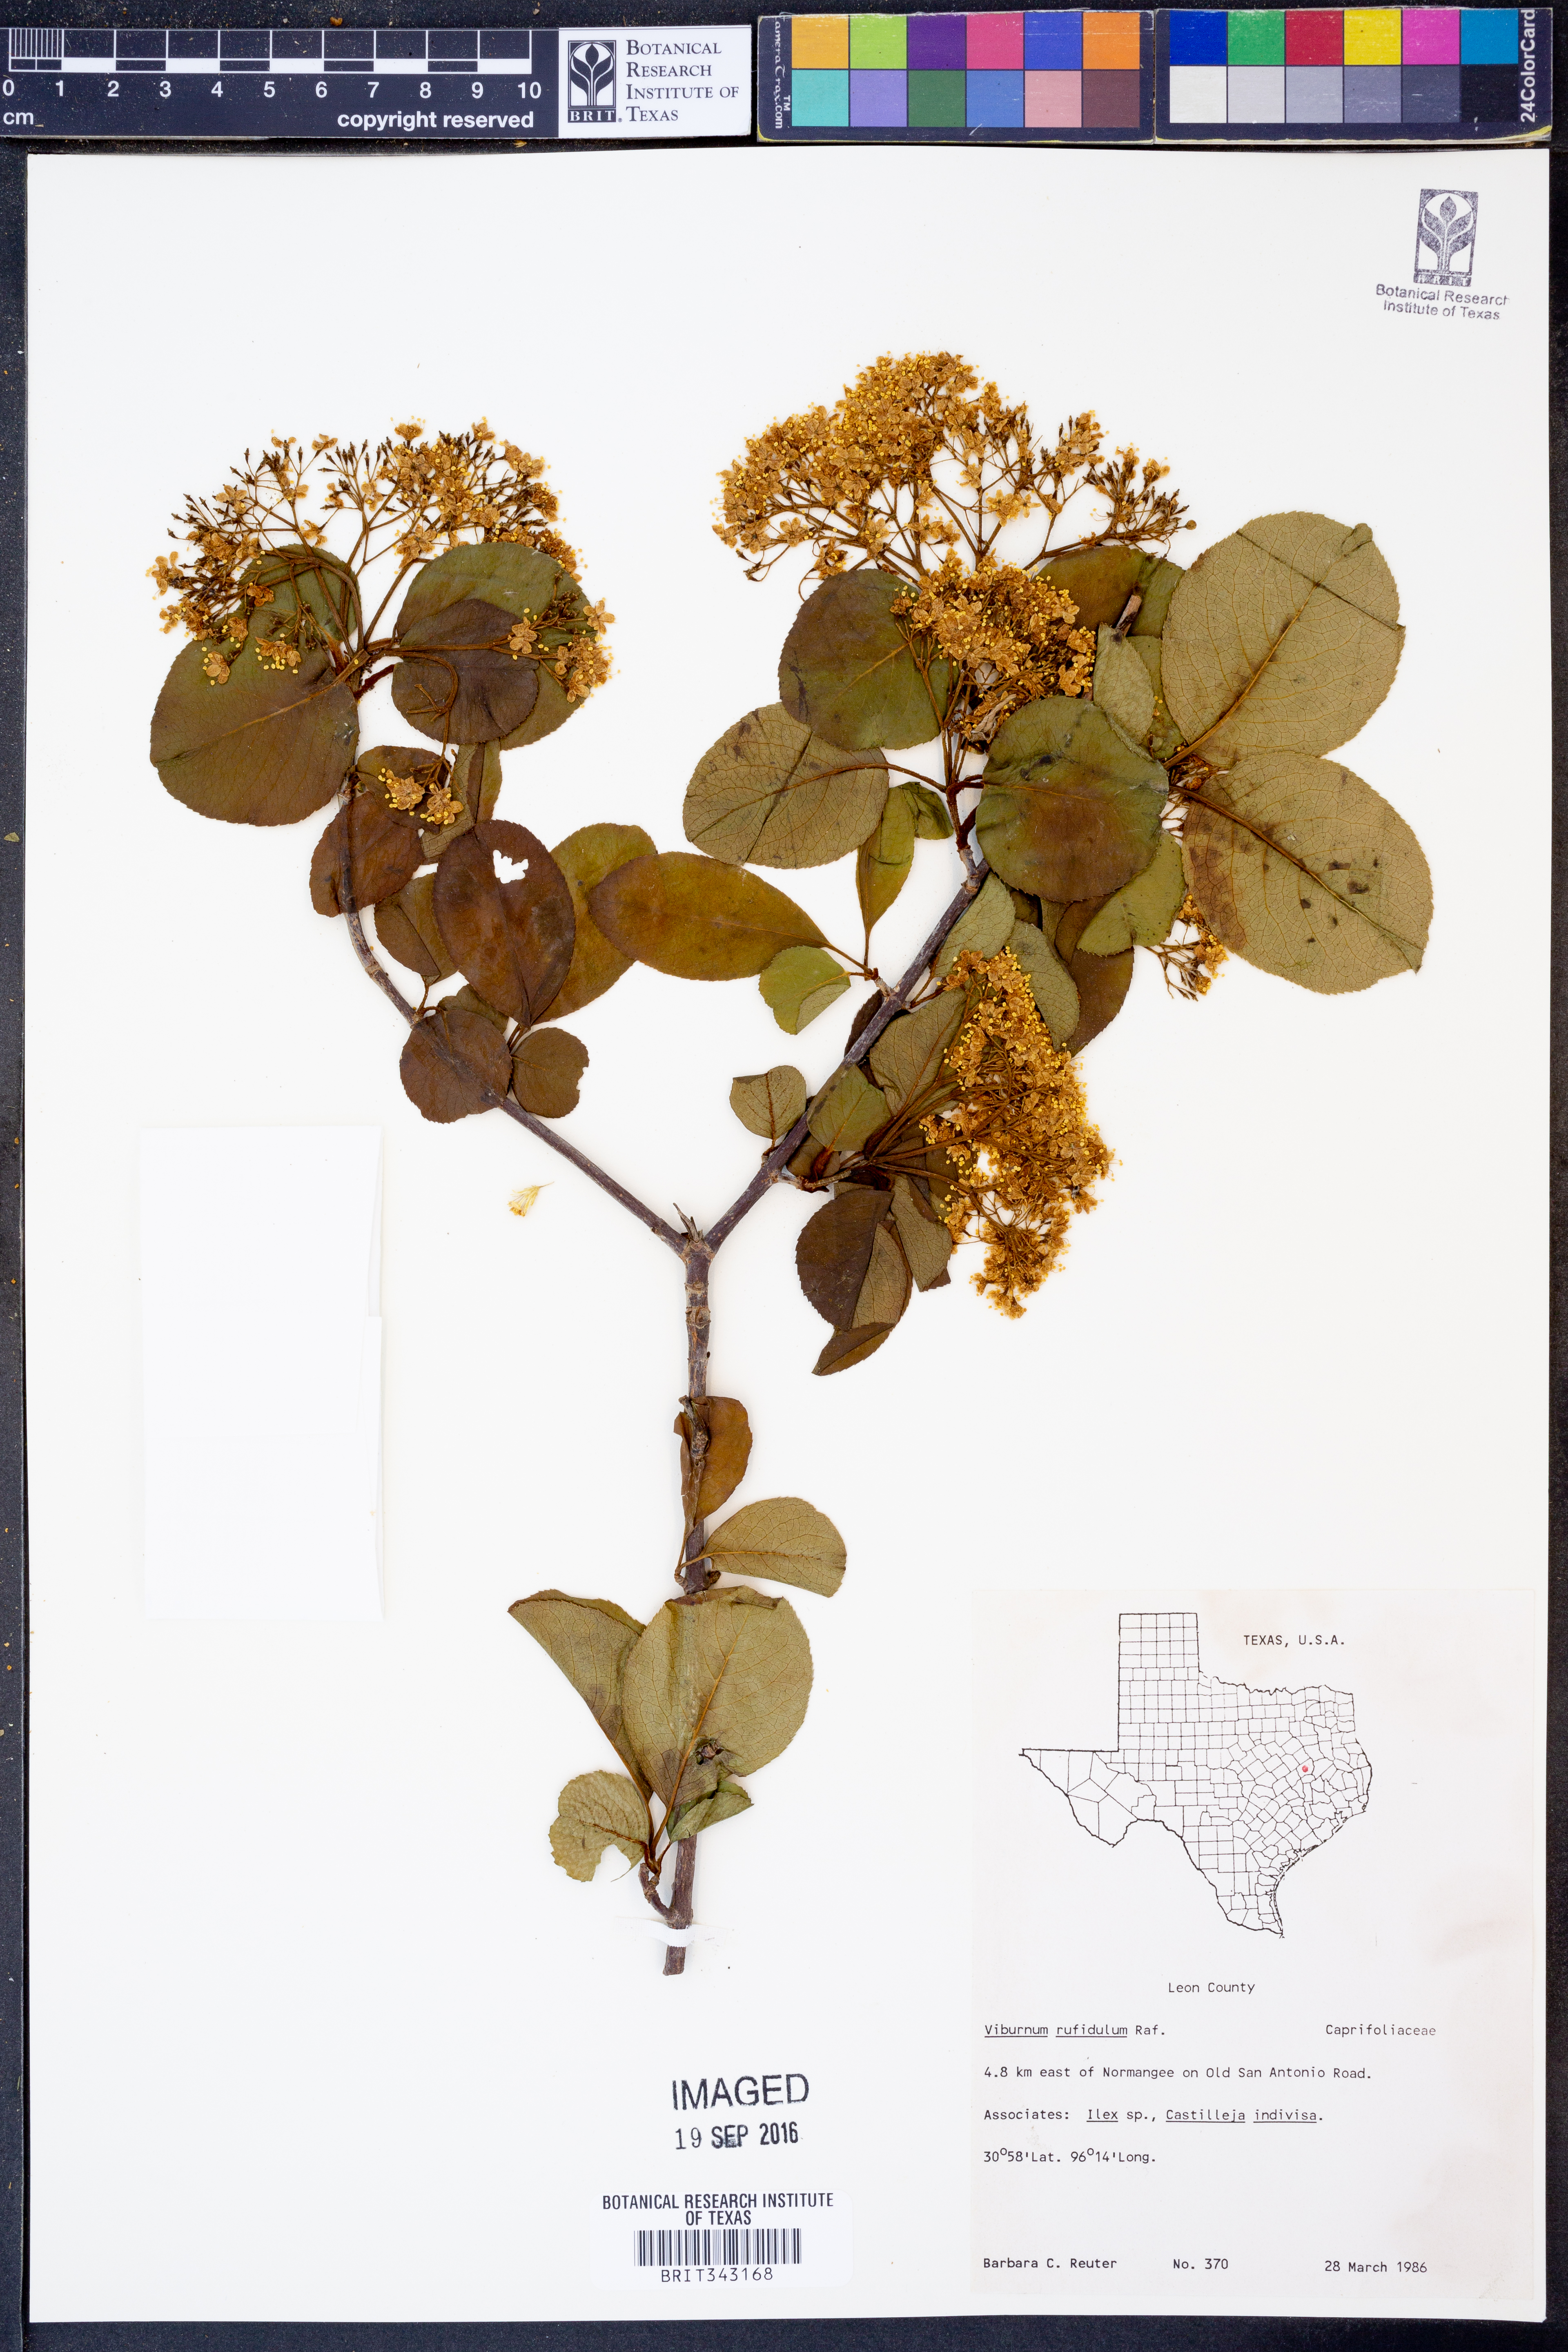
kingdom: Plantae
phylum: Tracheophyta
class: Magnoliopsida
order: Dipsacales
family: Viburnaceae
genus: Viburnum
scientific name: Viburnum rufidulum
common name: Blue haw
